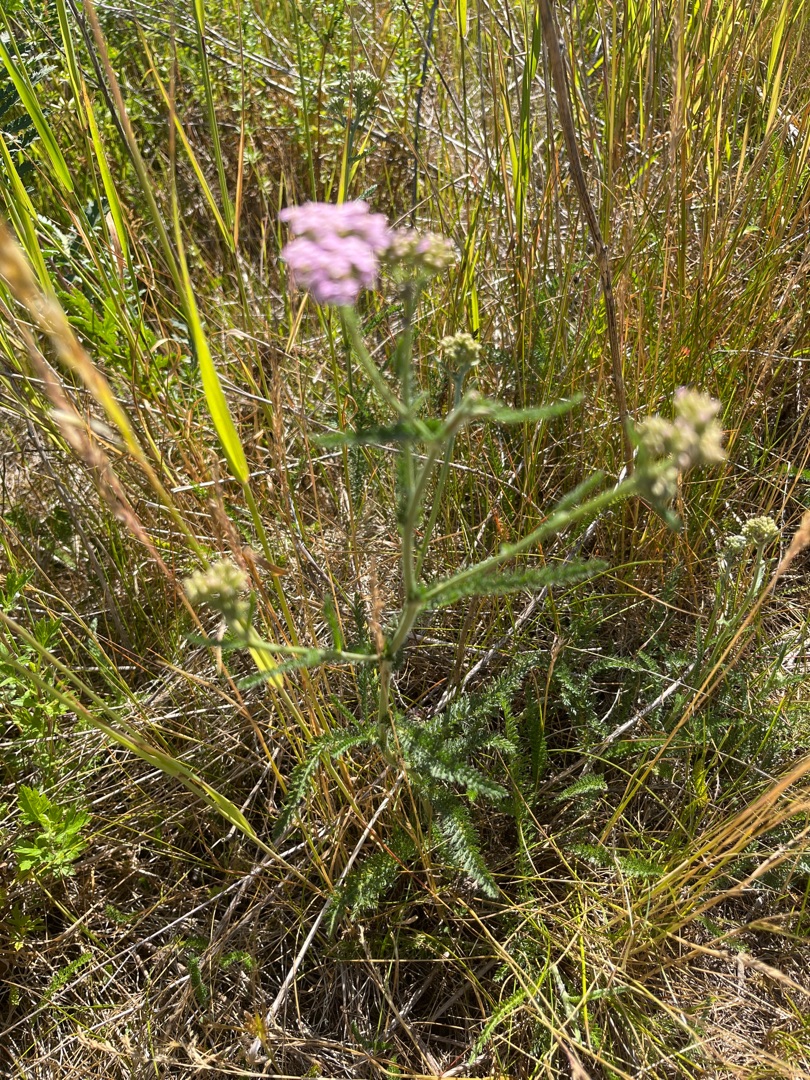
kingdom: Plantae
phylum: Tracheophyta
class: Magnoliopsida
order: Asterales
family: Asteraceae
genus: Achillea
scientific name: Achillea millefolium
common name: Almindelig røllike
